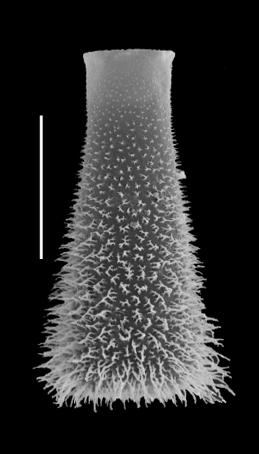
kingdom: Protozoa
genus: Belonechitina
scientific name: Belonechitina robusta
